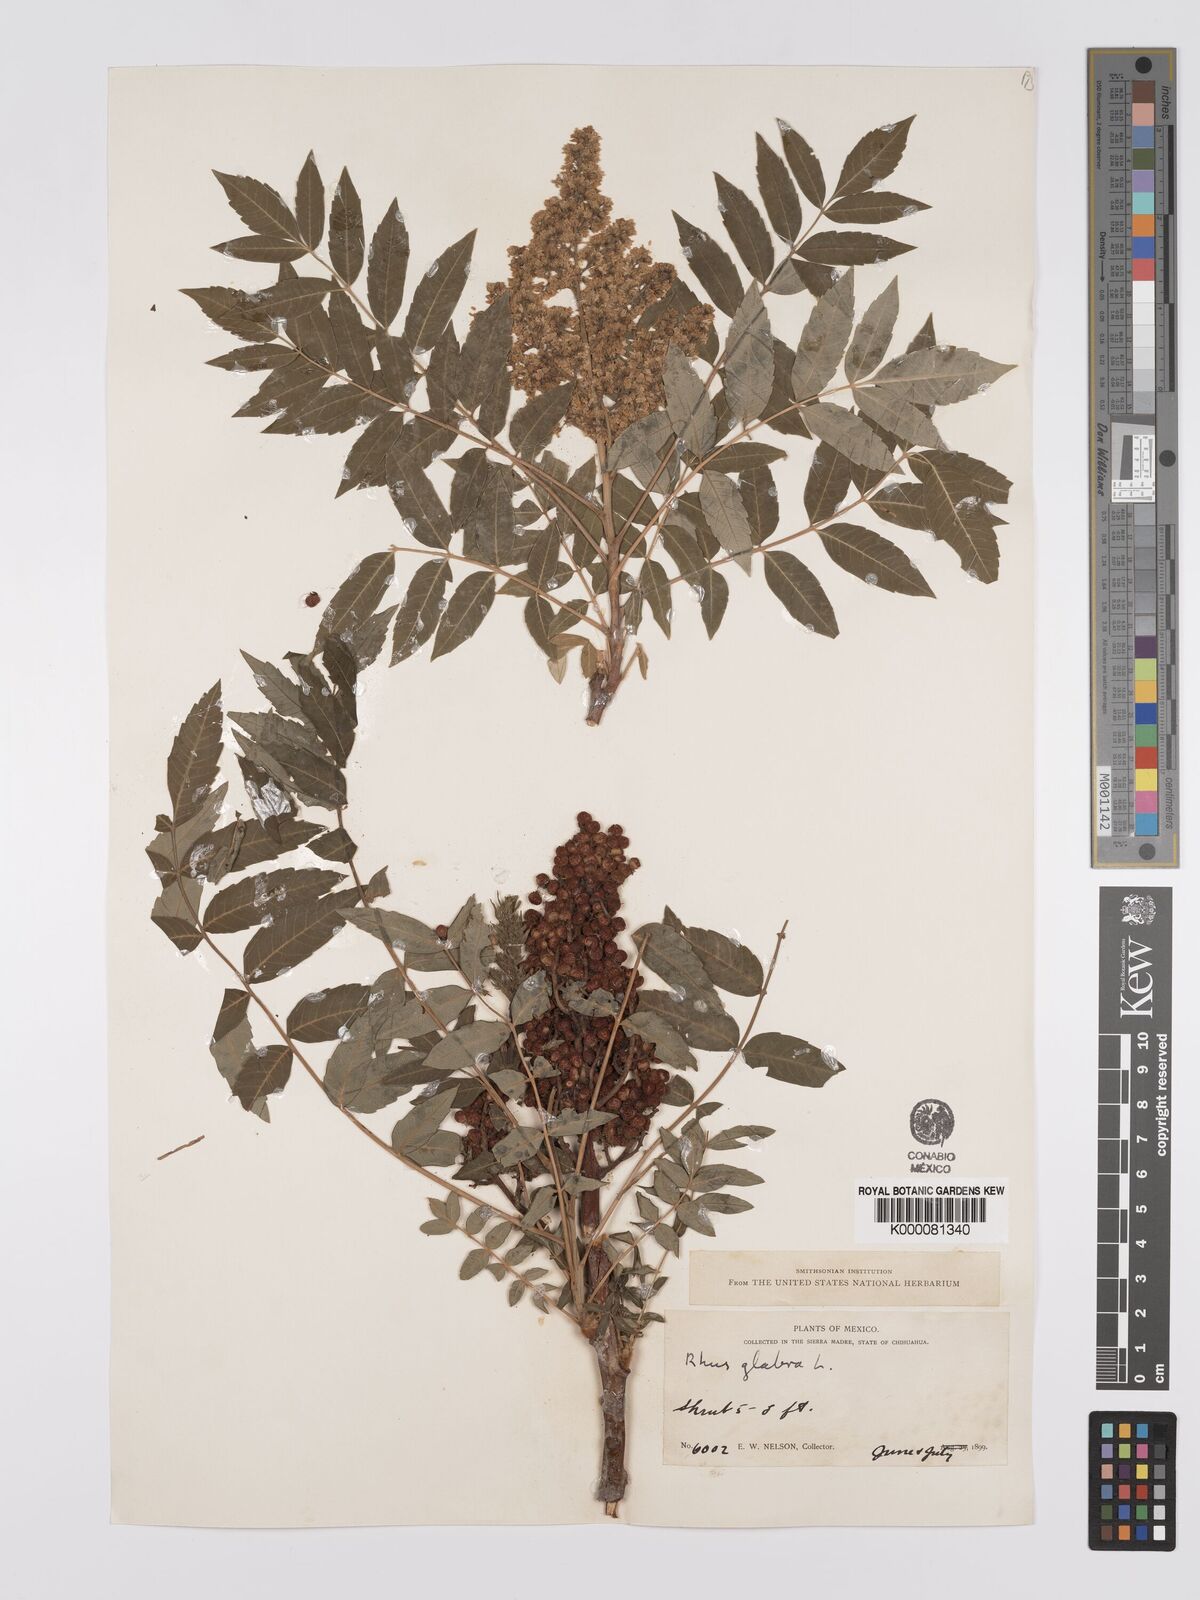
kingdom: Plantae
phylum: Tracheophyta
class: Magnoliopsida
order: Sapindales
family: Anacardiaceae
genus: Rhus
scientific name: Rhus glabra
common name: Scarlet sumac
